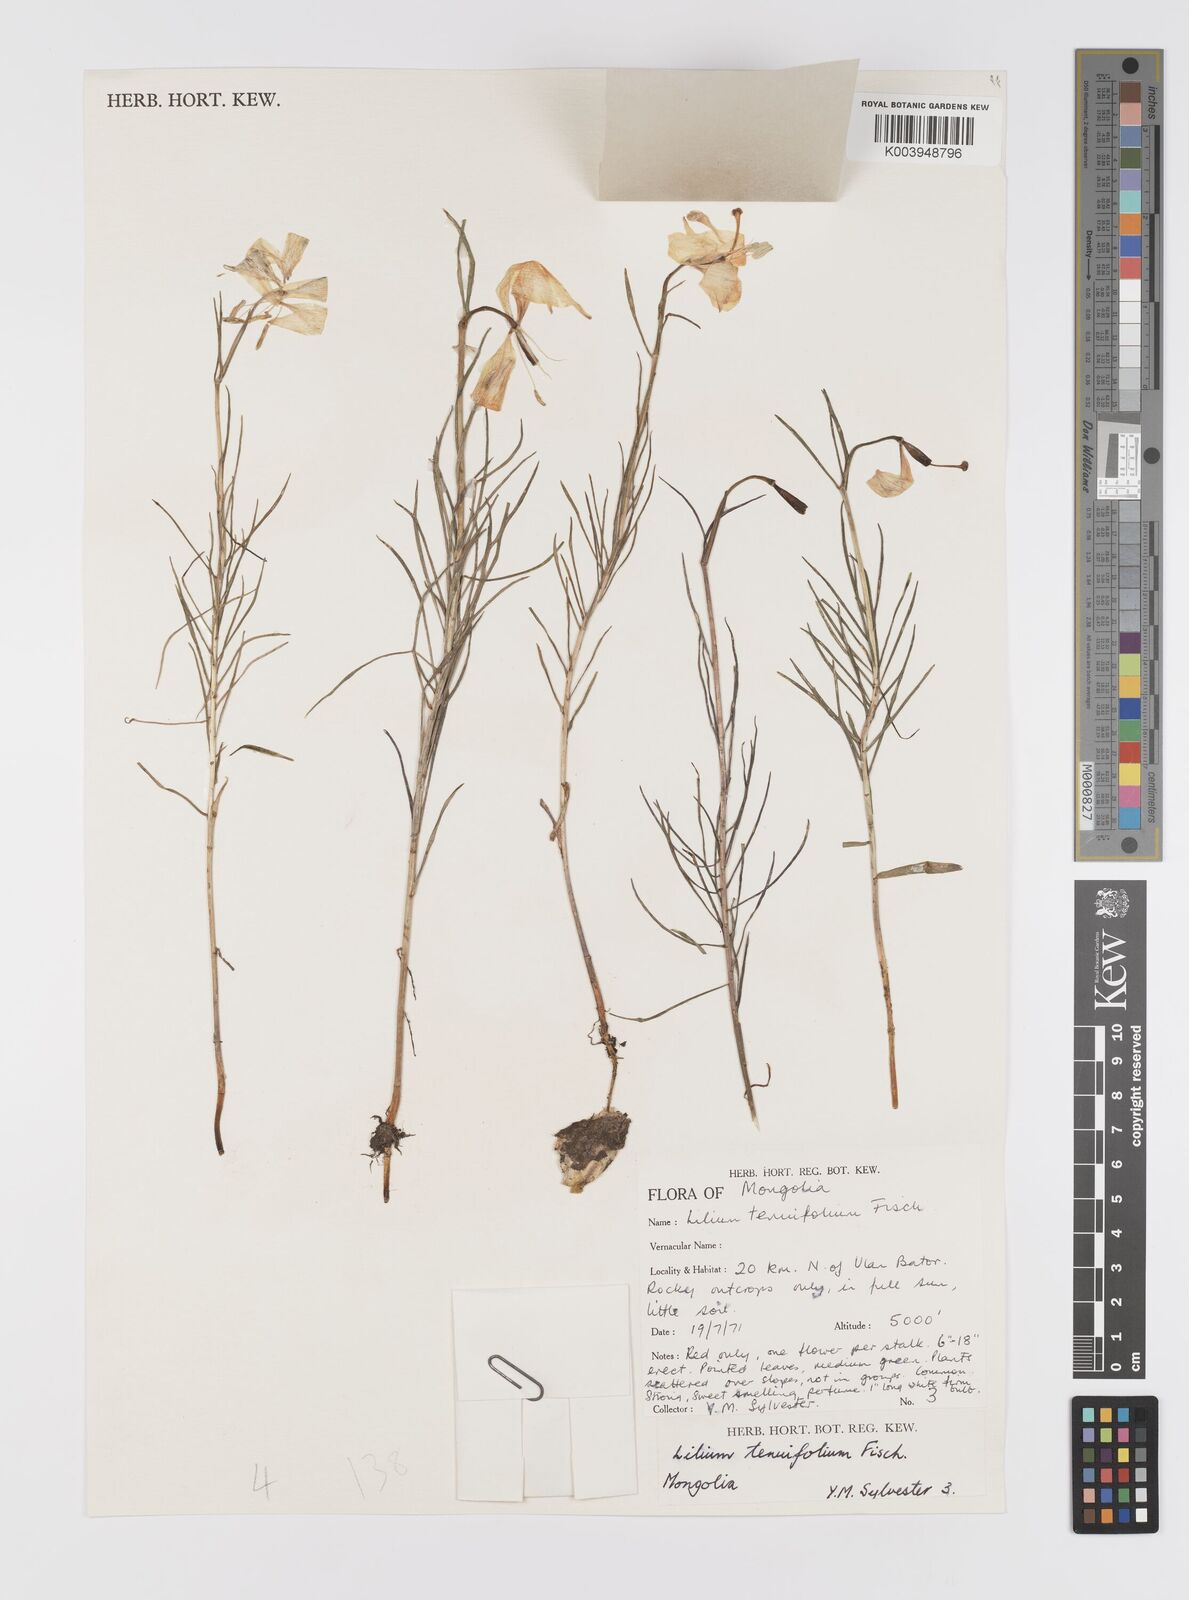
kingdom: Plantae
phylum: Tracheophyta
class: Liliopsida
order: Liliales
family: Liliaceae
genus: Lilium
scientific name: Lilium pumilum
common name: Coral lily
